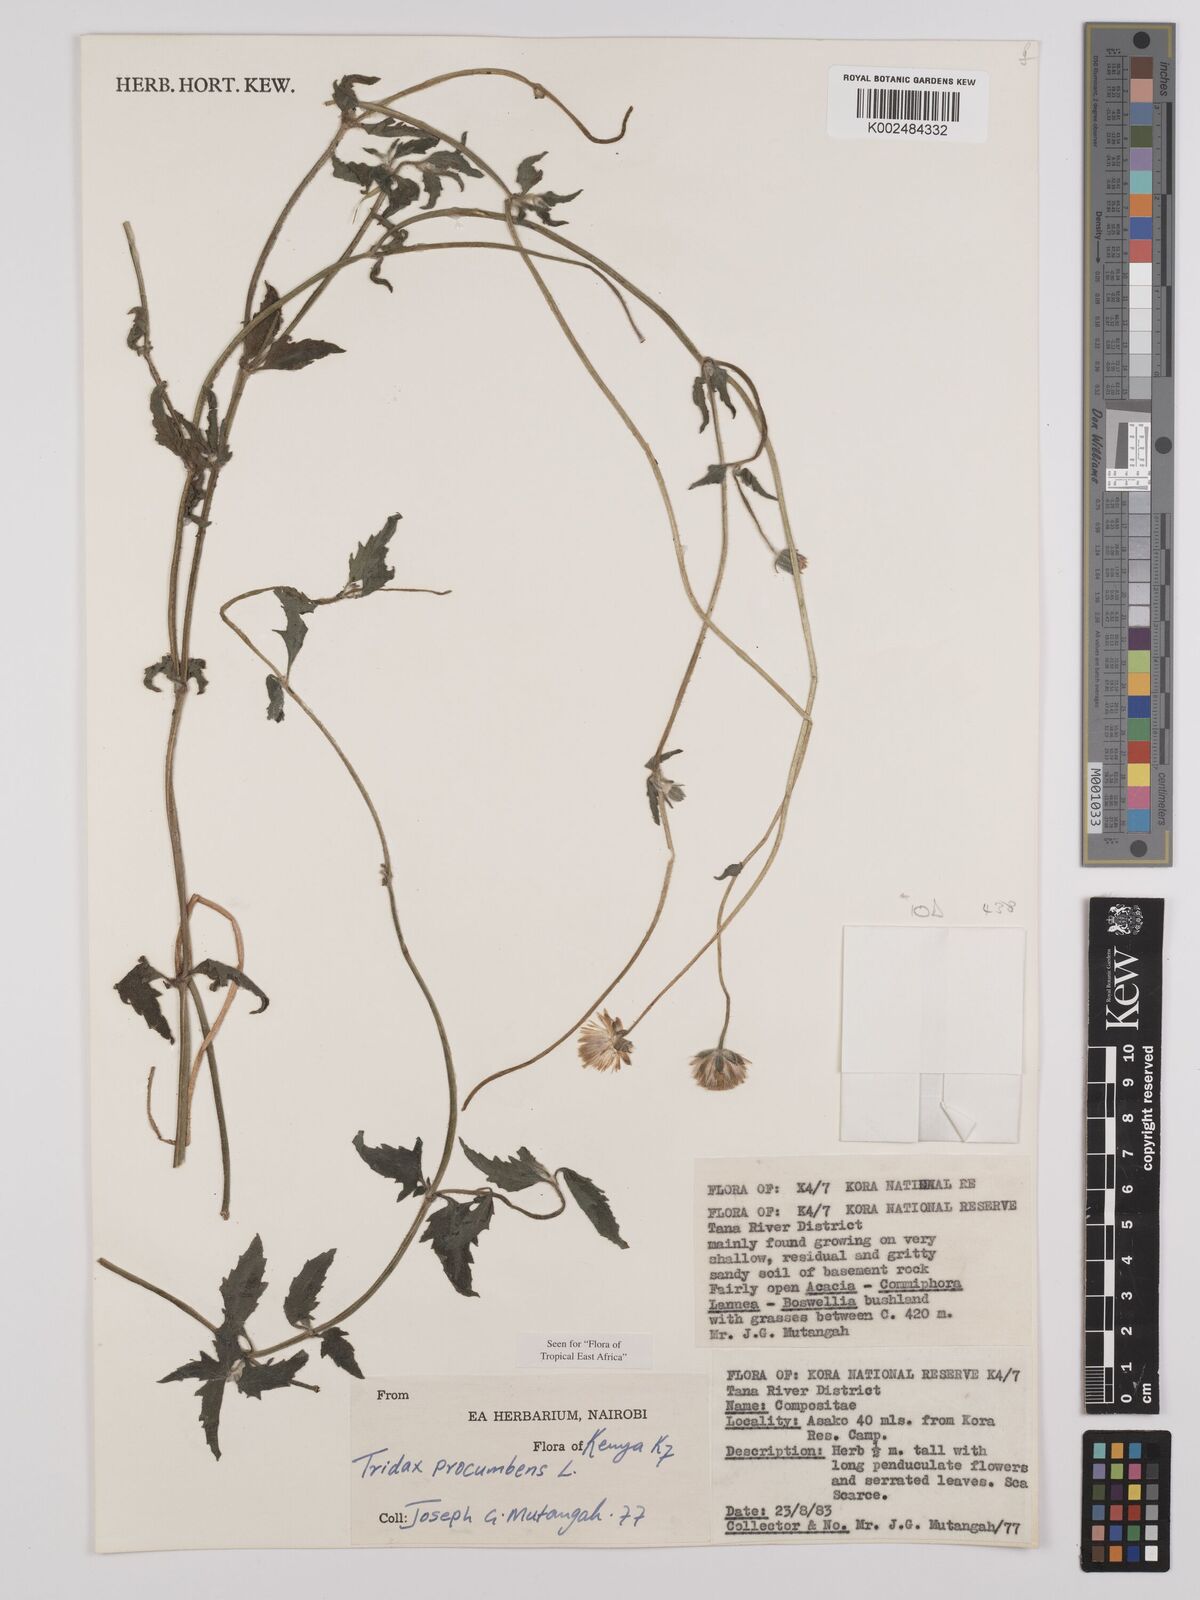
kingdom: Plantae
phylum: Tracheophyta
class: Magnoliopsida
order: Asterales
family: Asteraceae
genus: Tridax
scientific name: Tridax procumbens
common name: Coatbuttons
